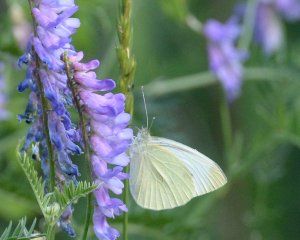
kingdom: Animalia
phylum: Arthropoda
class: Insecta
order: Lepidoptera
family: Pieridae
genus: Pieris
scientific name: Pieris rapae
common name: Cabbage White
